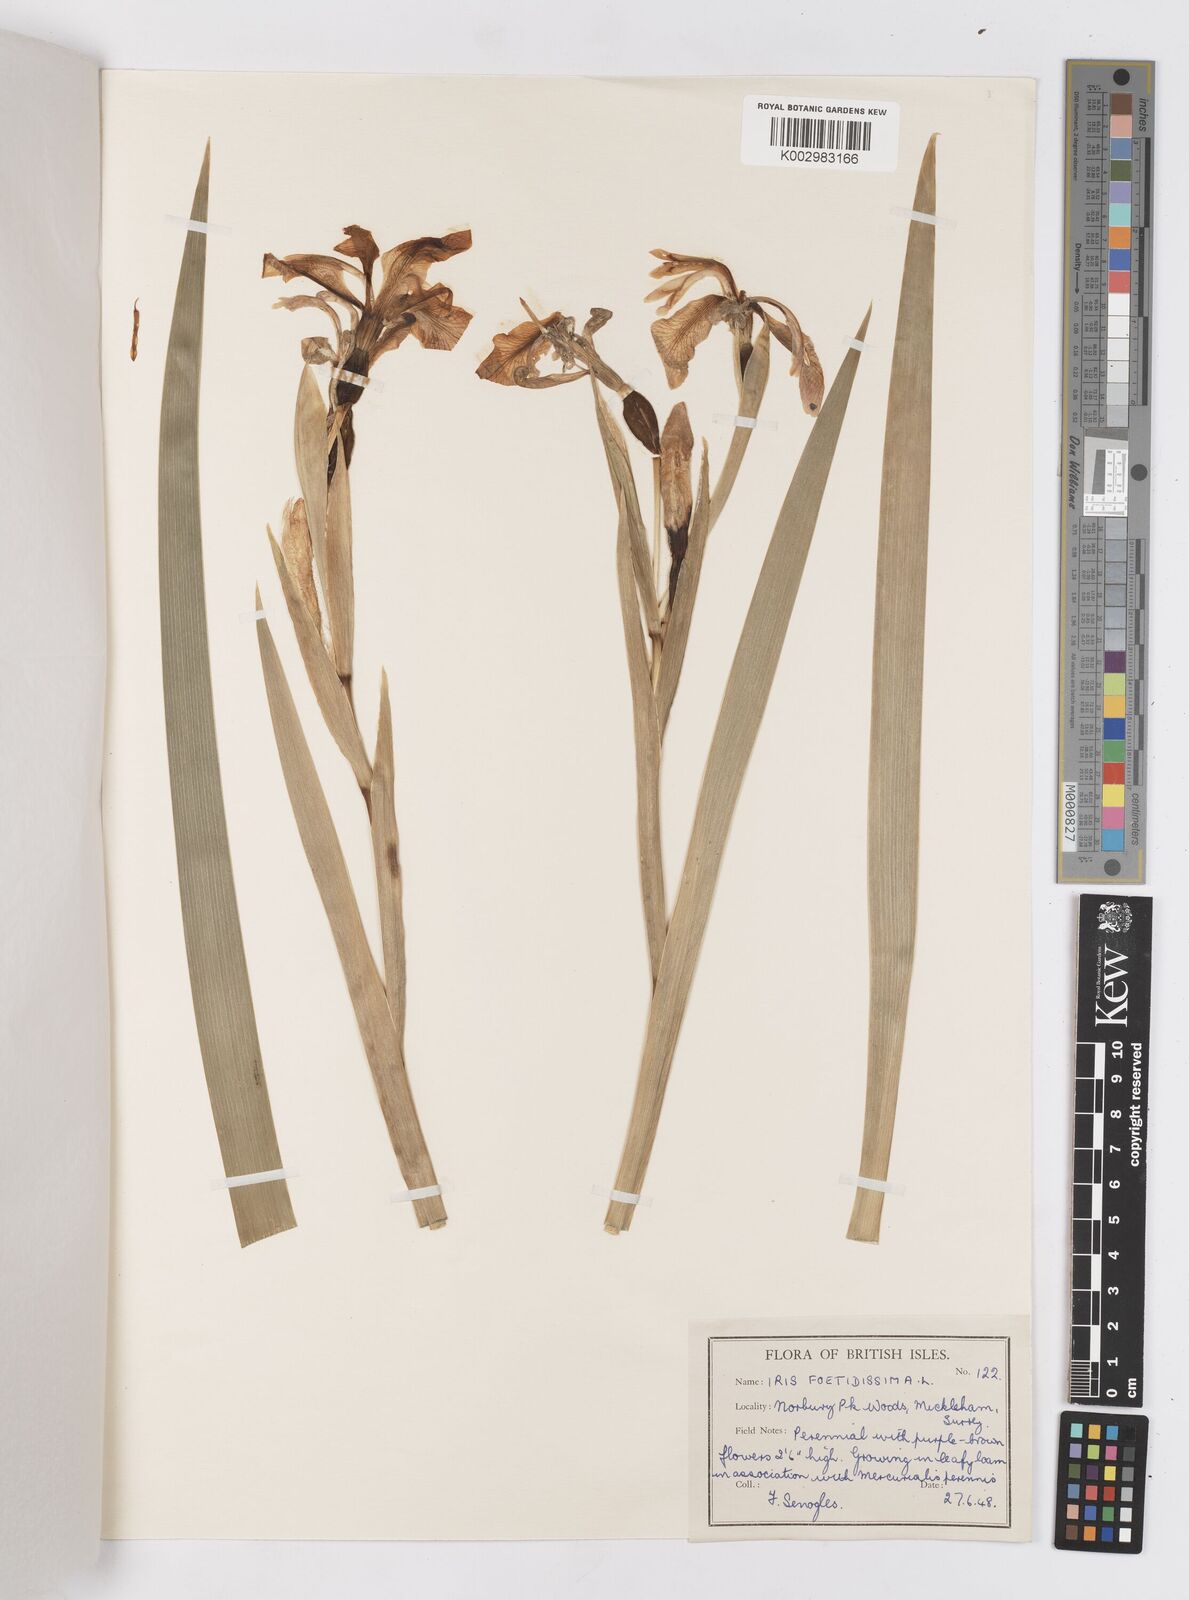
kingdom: Plantae
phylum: Tracheophyta
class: Liliopsida
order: Asparagales
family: Iridaceae
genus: Iris
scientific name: Iris foetidissima
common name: Stinking iris
